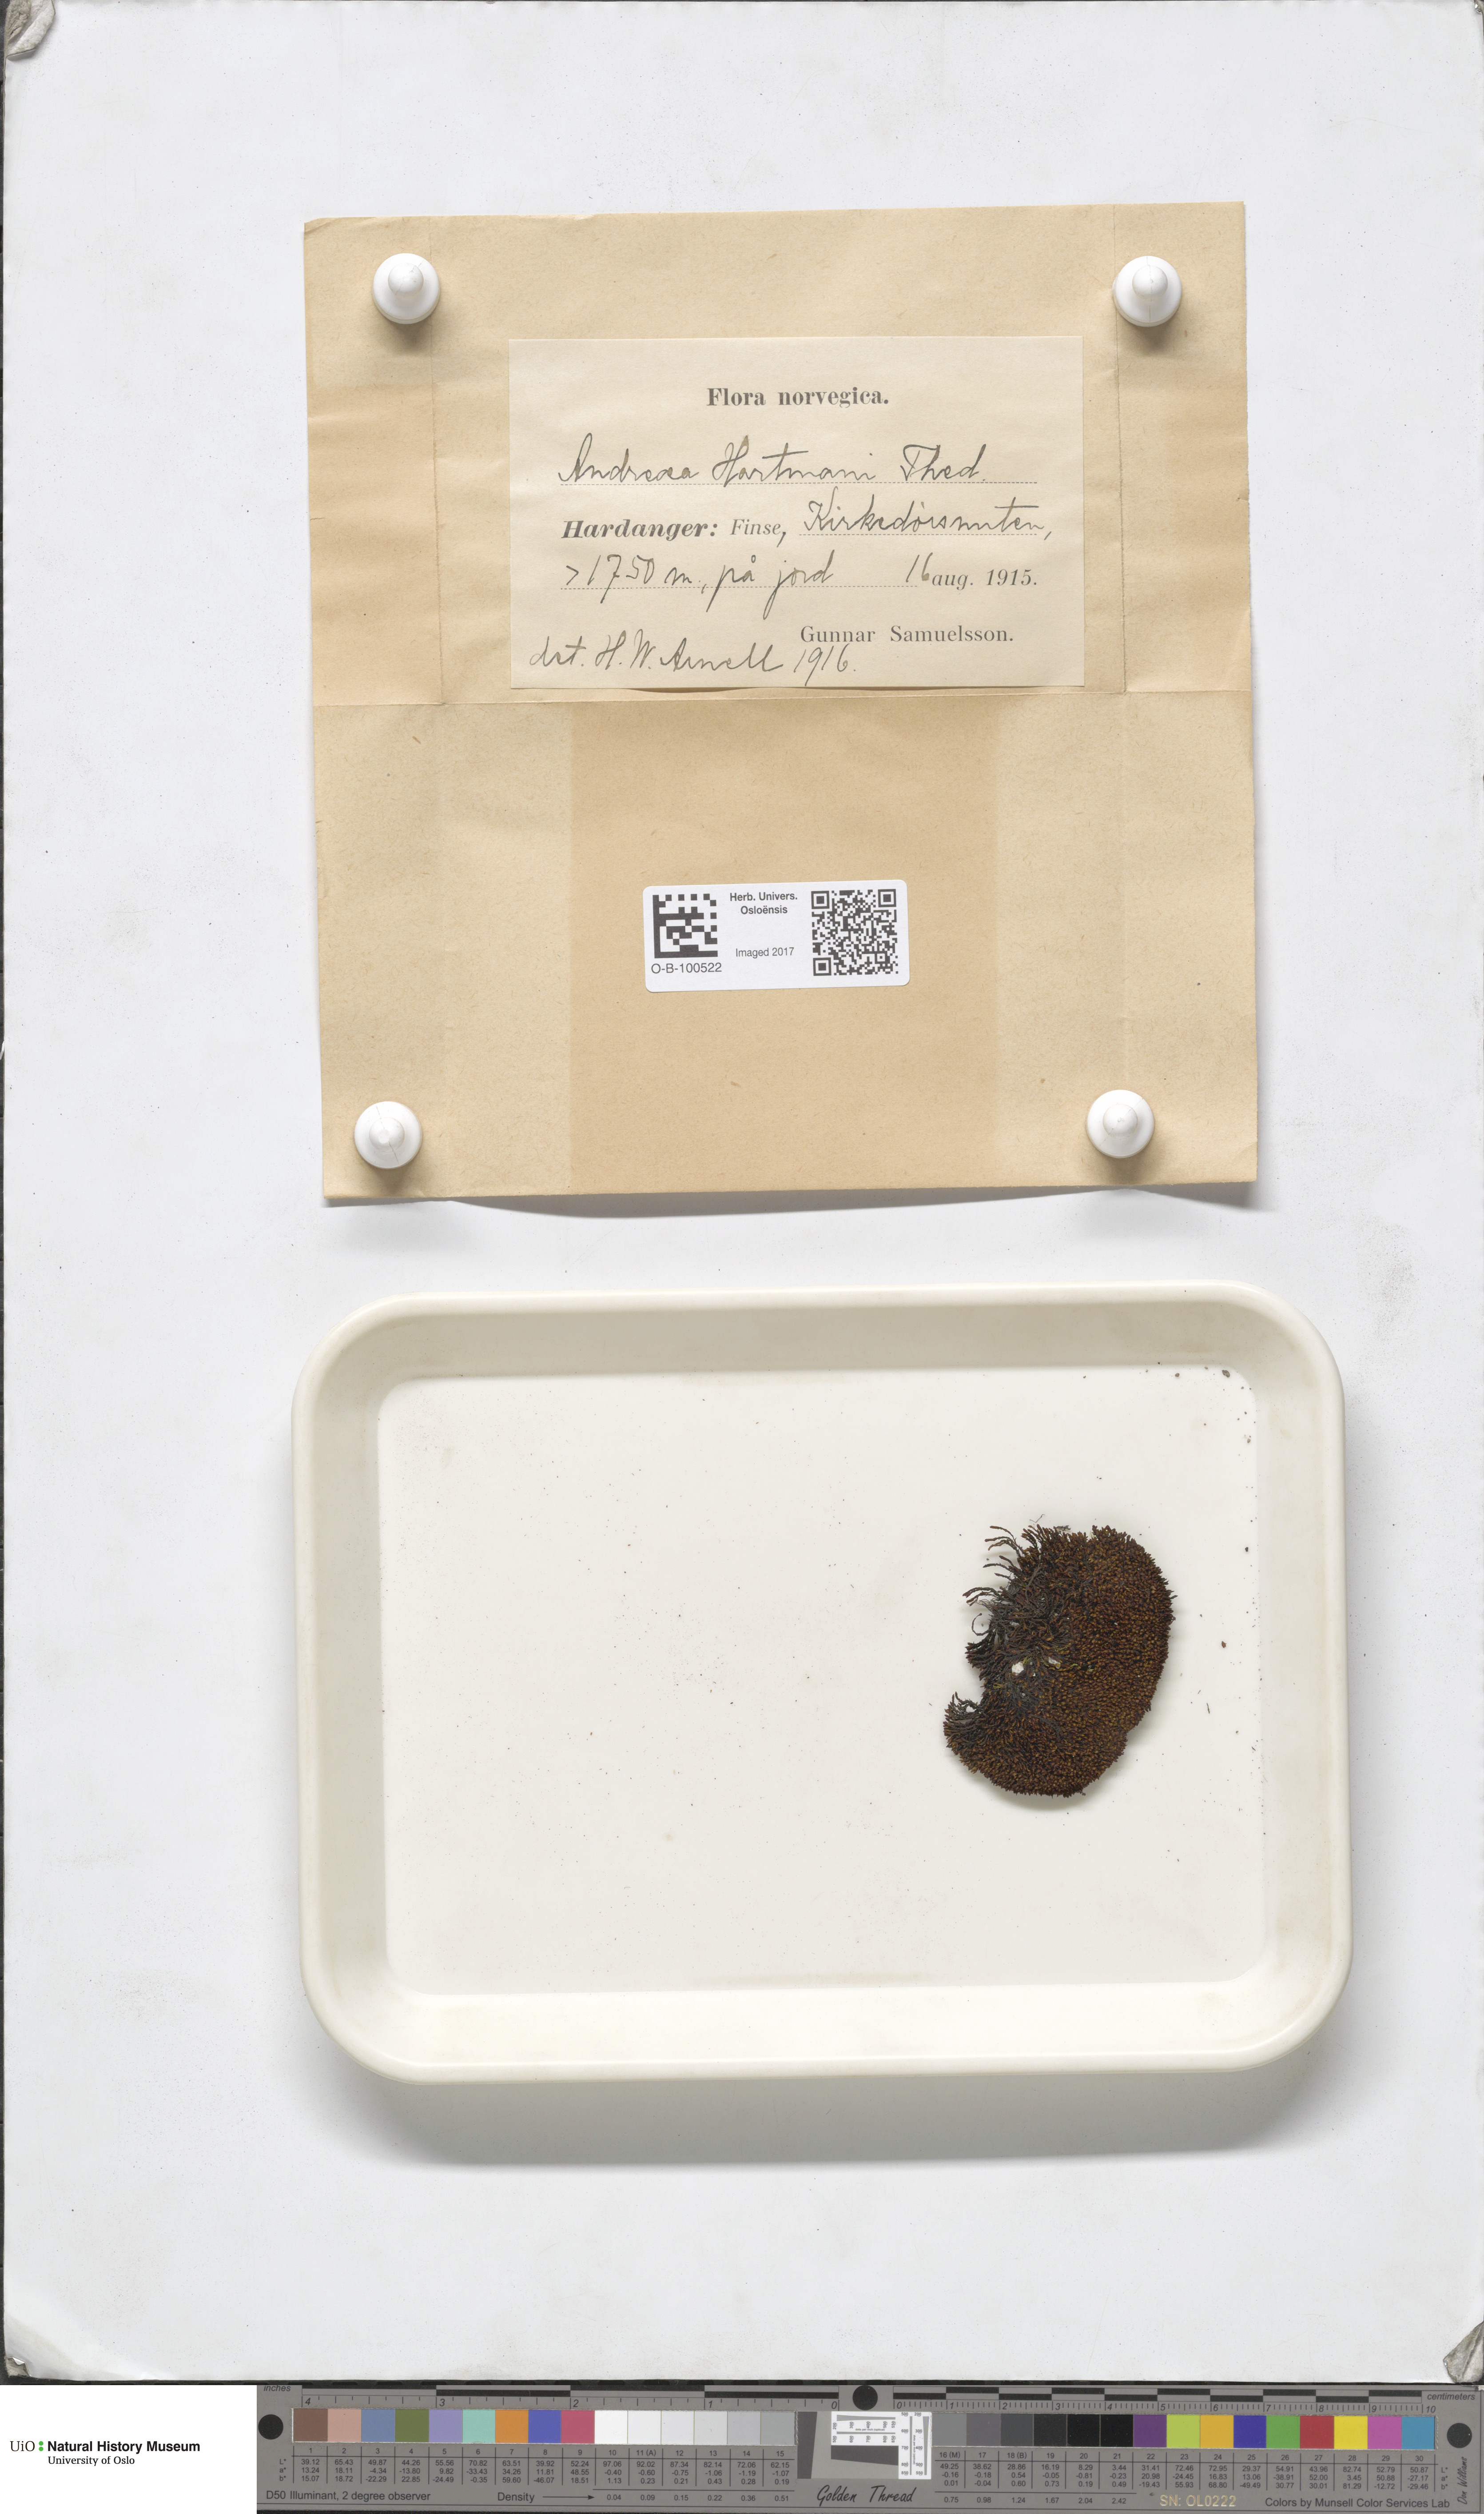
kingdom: Plantae
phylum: Bryophyta
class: Andreaeopsida
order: Andreaeales
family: Andreaeaceae
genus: Andreaea
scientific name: Andreaea alpina
